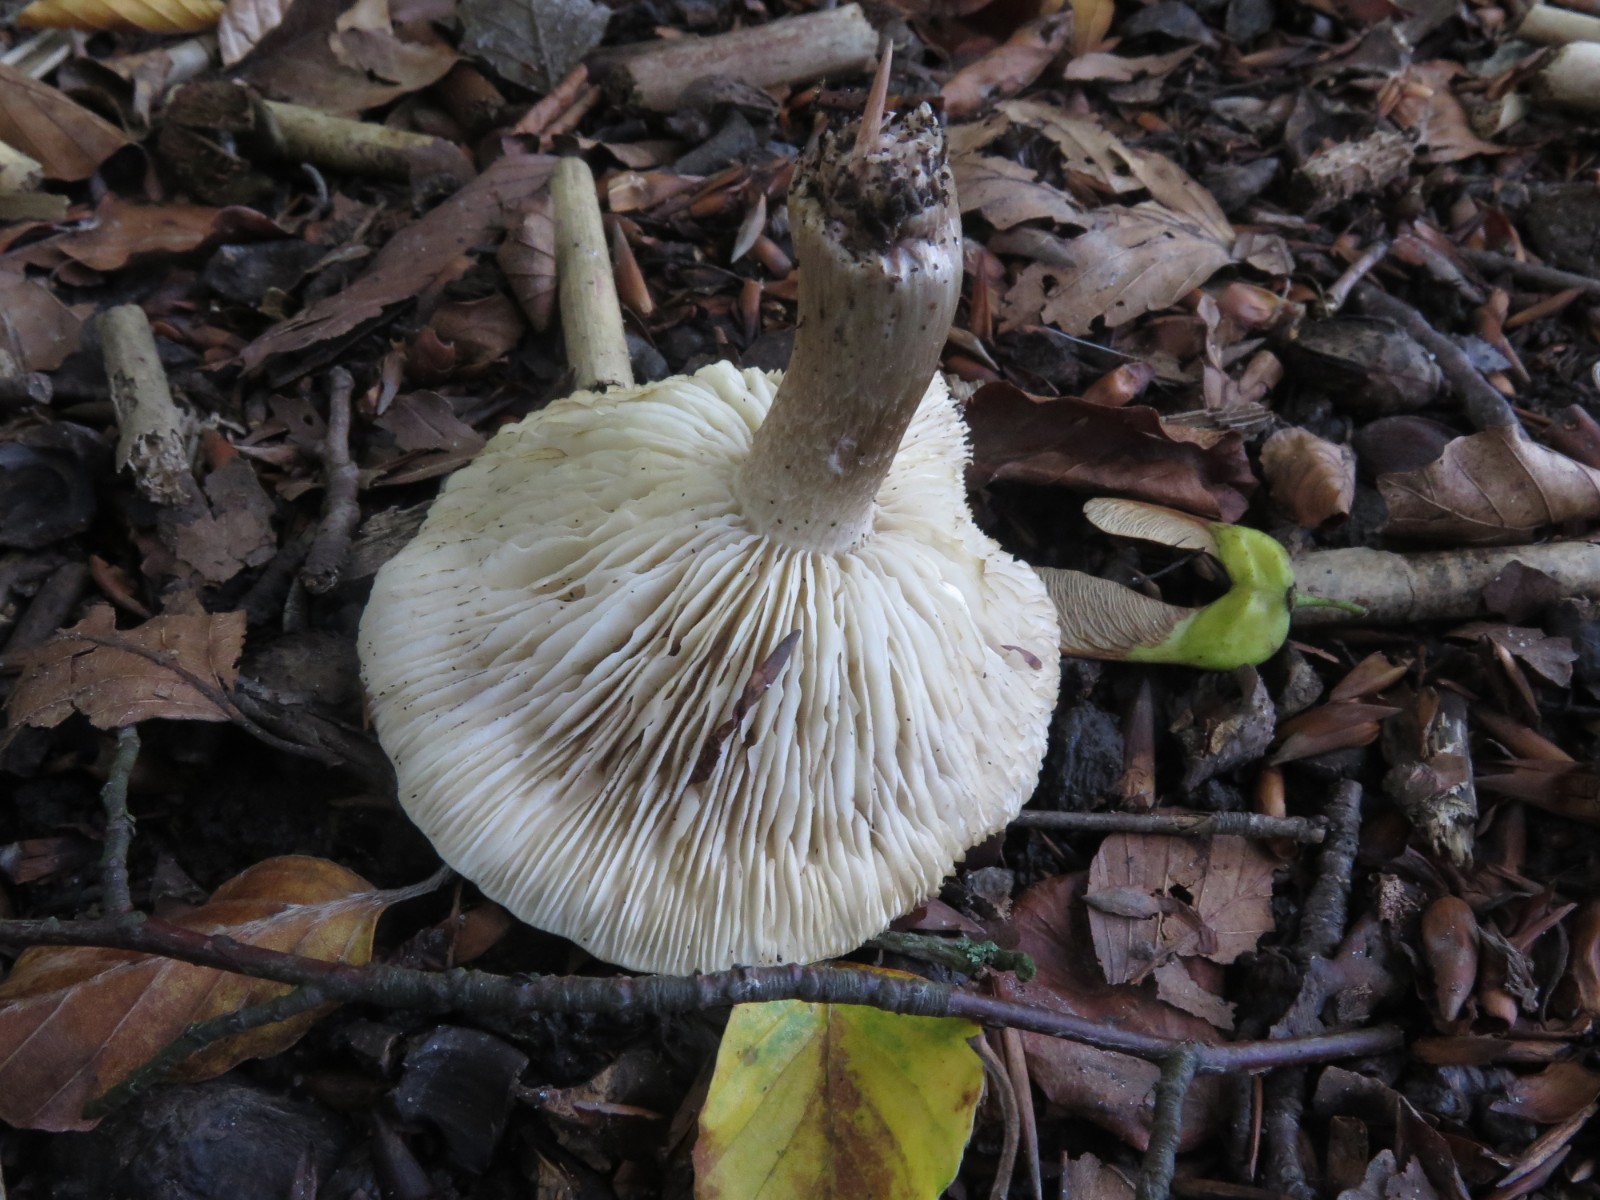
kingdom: Fungi
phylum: Basidiomycota
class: Agaricomycetes
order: Agaricales
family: Tricholomataceae
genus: Tricholoma
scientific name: Tricholoma basirubens
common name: rødfodet ridderhat
